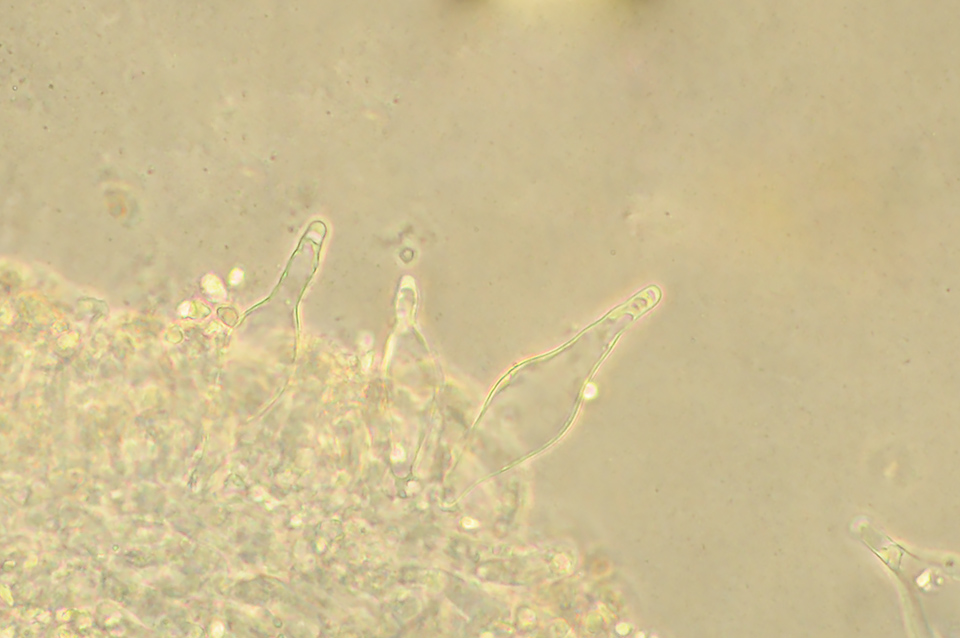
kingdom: Fungi
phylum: Basidiomycota
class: Agaricomycetes
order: Agaricales
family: Mycenaceae
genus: Mycena
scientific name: Mycena aetites
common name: plæne-huesvamp
